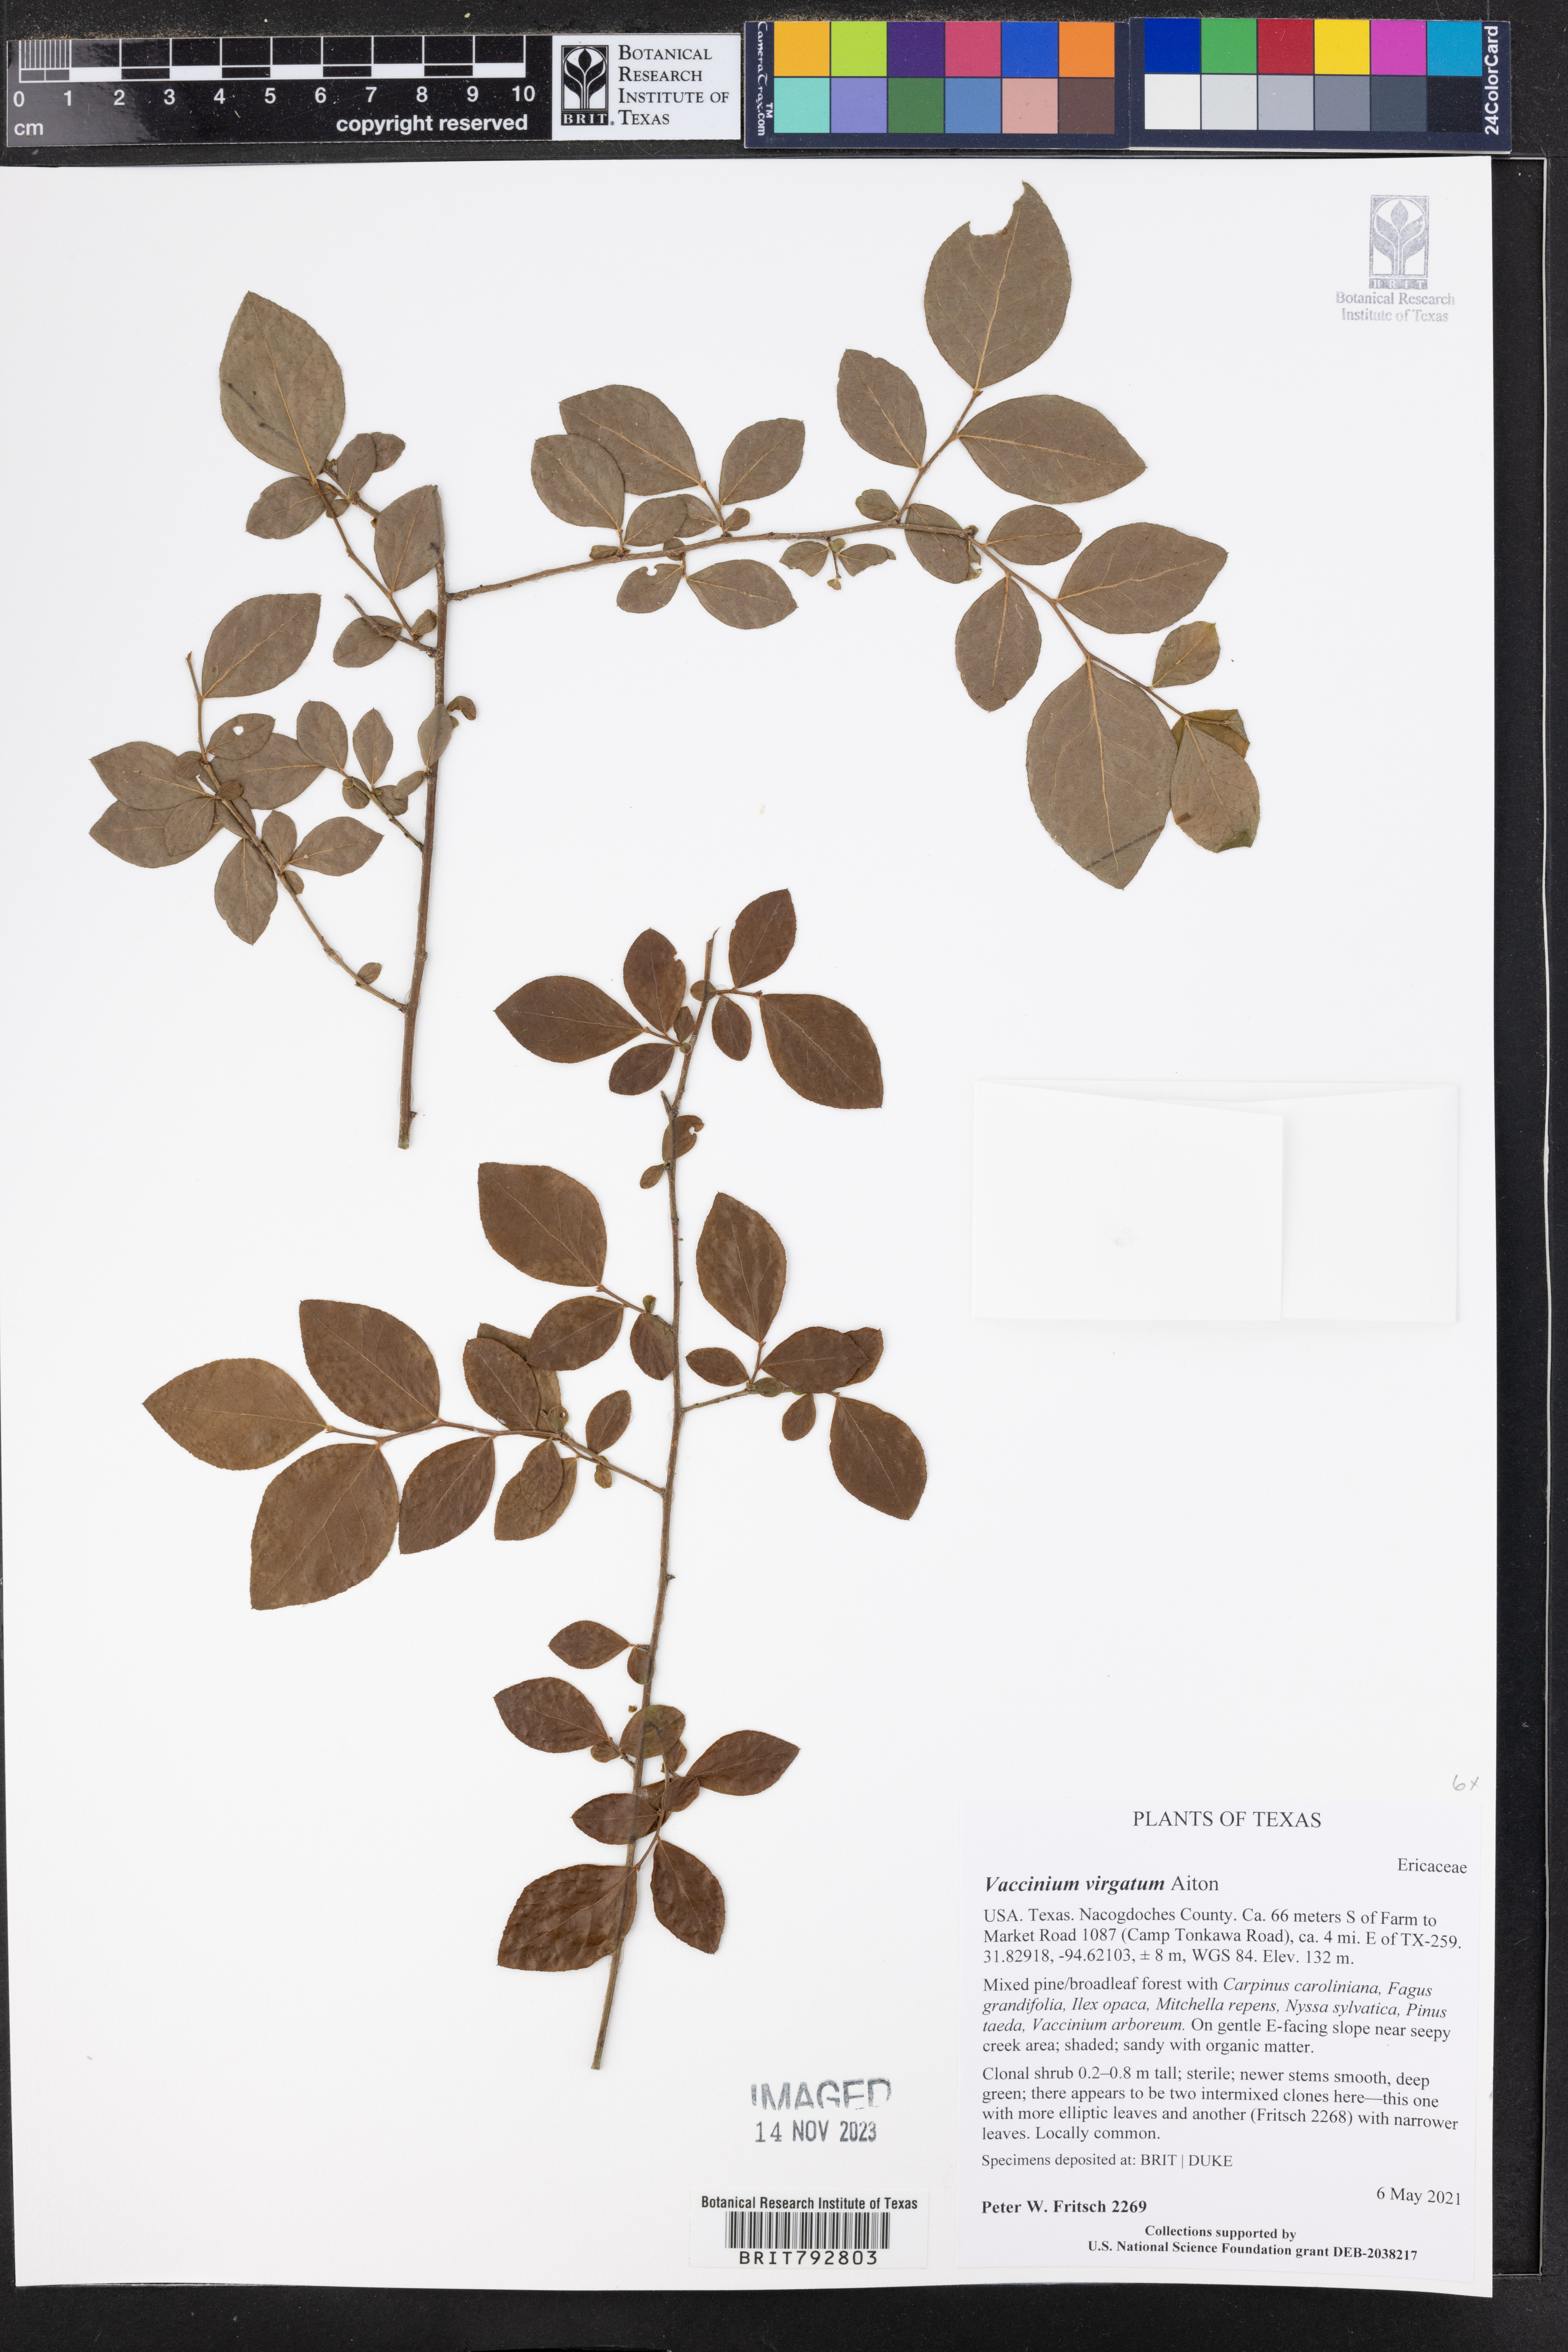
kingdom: Plantae
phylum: Tracheophyta
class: Magnoliopsida
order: Ericales
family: Ericaceae
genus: Vaccinium
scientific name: Vaccinium corymbosum
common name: Blueberry
